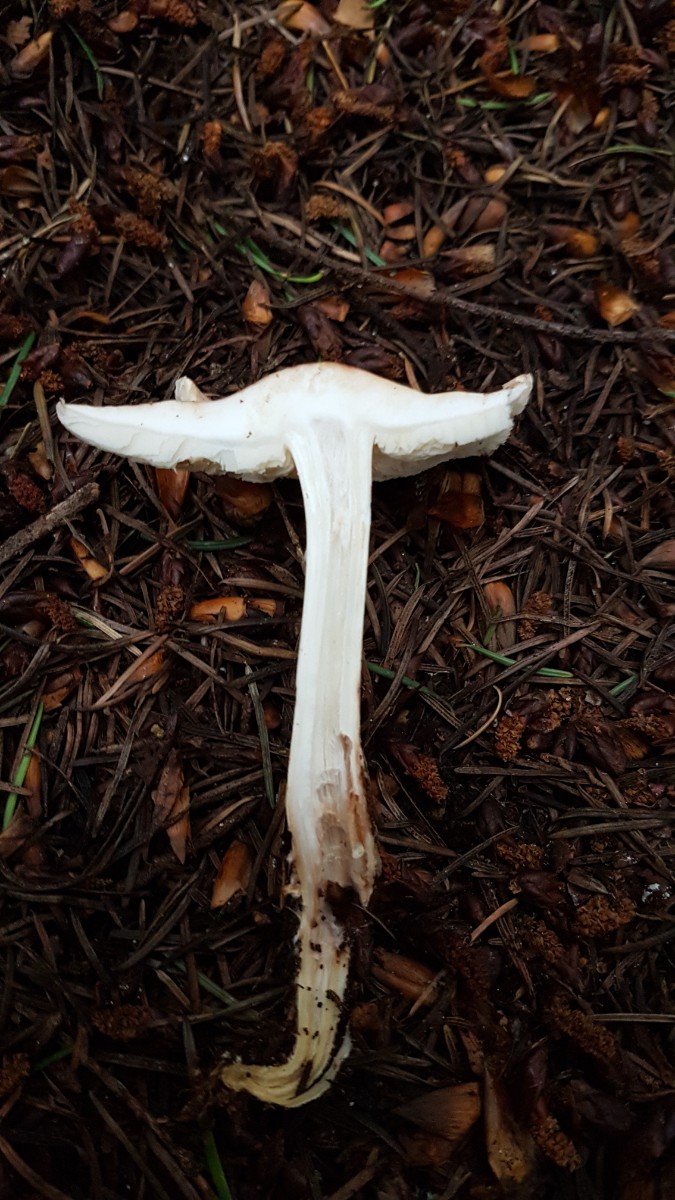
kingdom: Fungi
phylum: Basidiomycota
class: Agaricomycetes
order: Agaricales
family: Omphalotaceae
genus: Rhodocollybia
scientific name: Rhodocollybia maculata
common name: plettet fladhat
